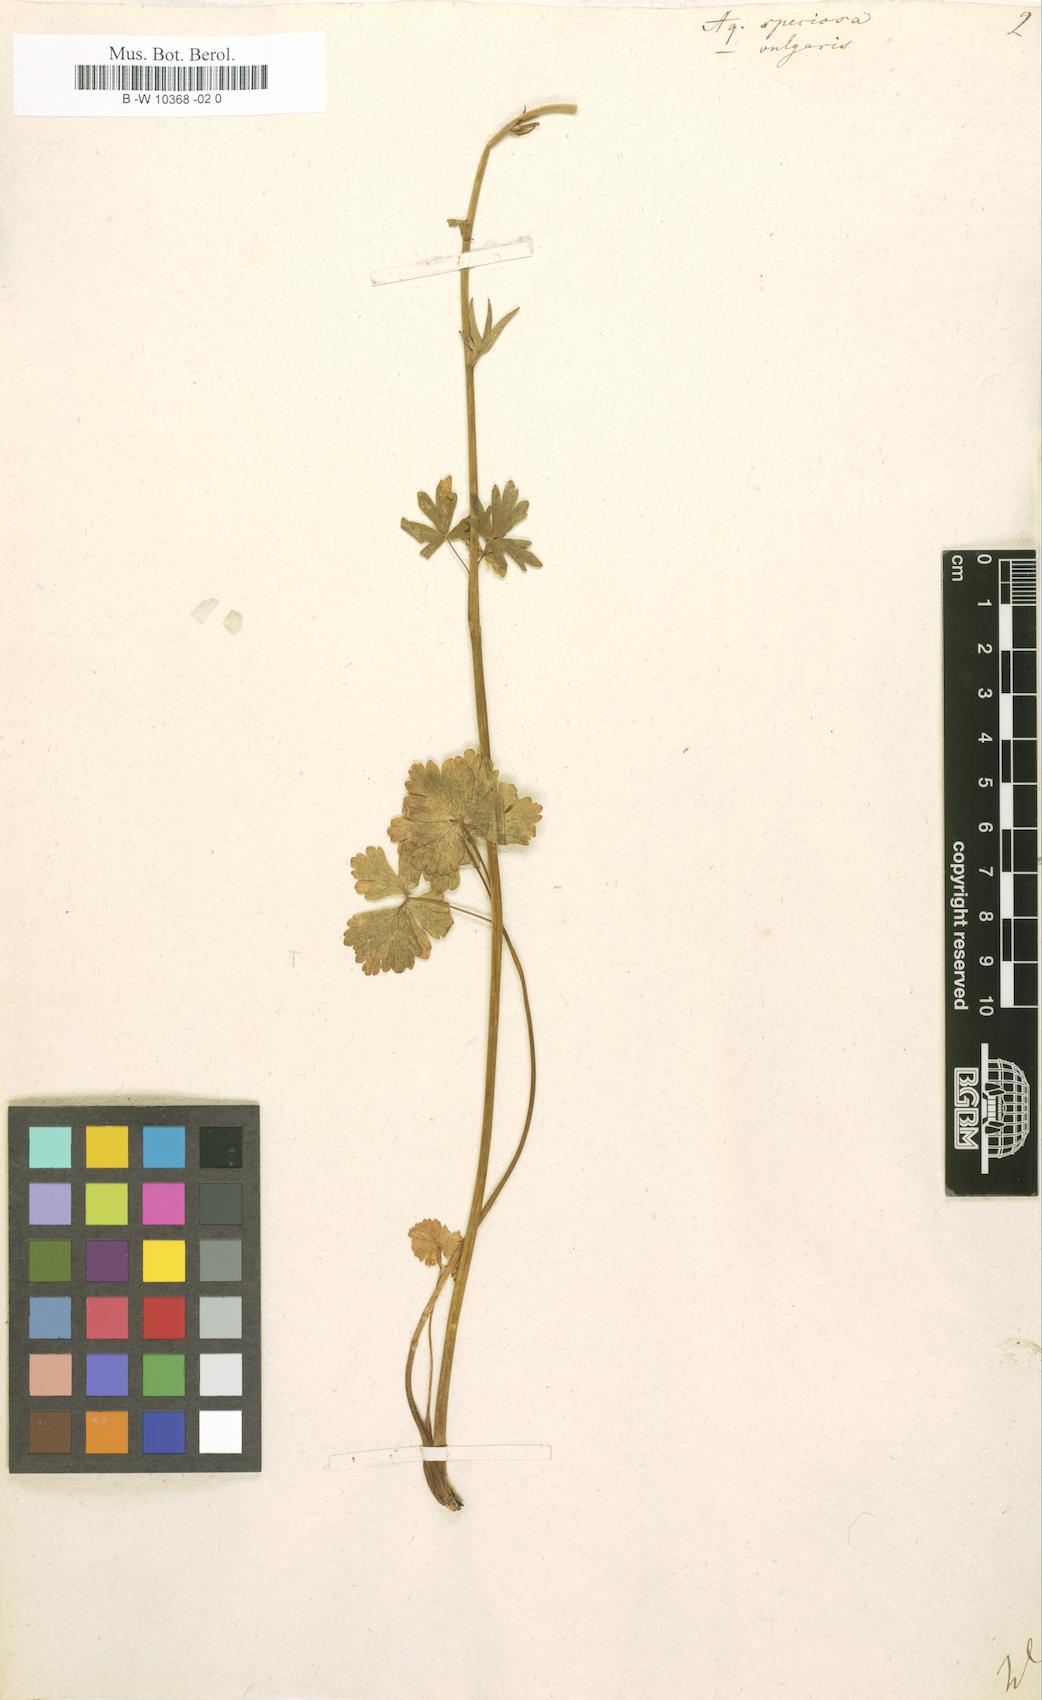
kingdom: Plantae
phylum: Tracheophyta
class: Magnoliopsida
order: Ranunculales
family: Ranunculaceae
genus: Aquilegia
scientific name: Aquilegia
